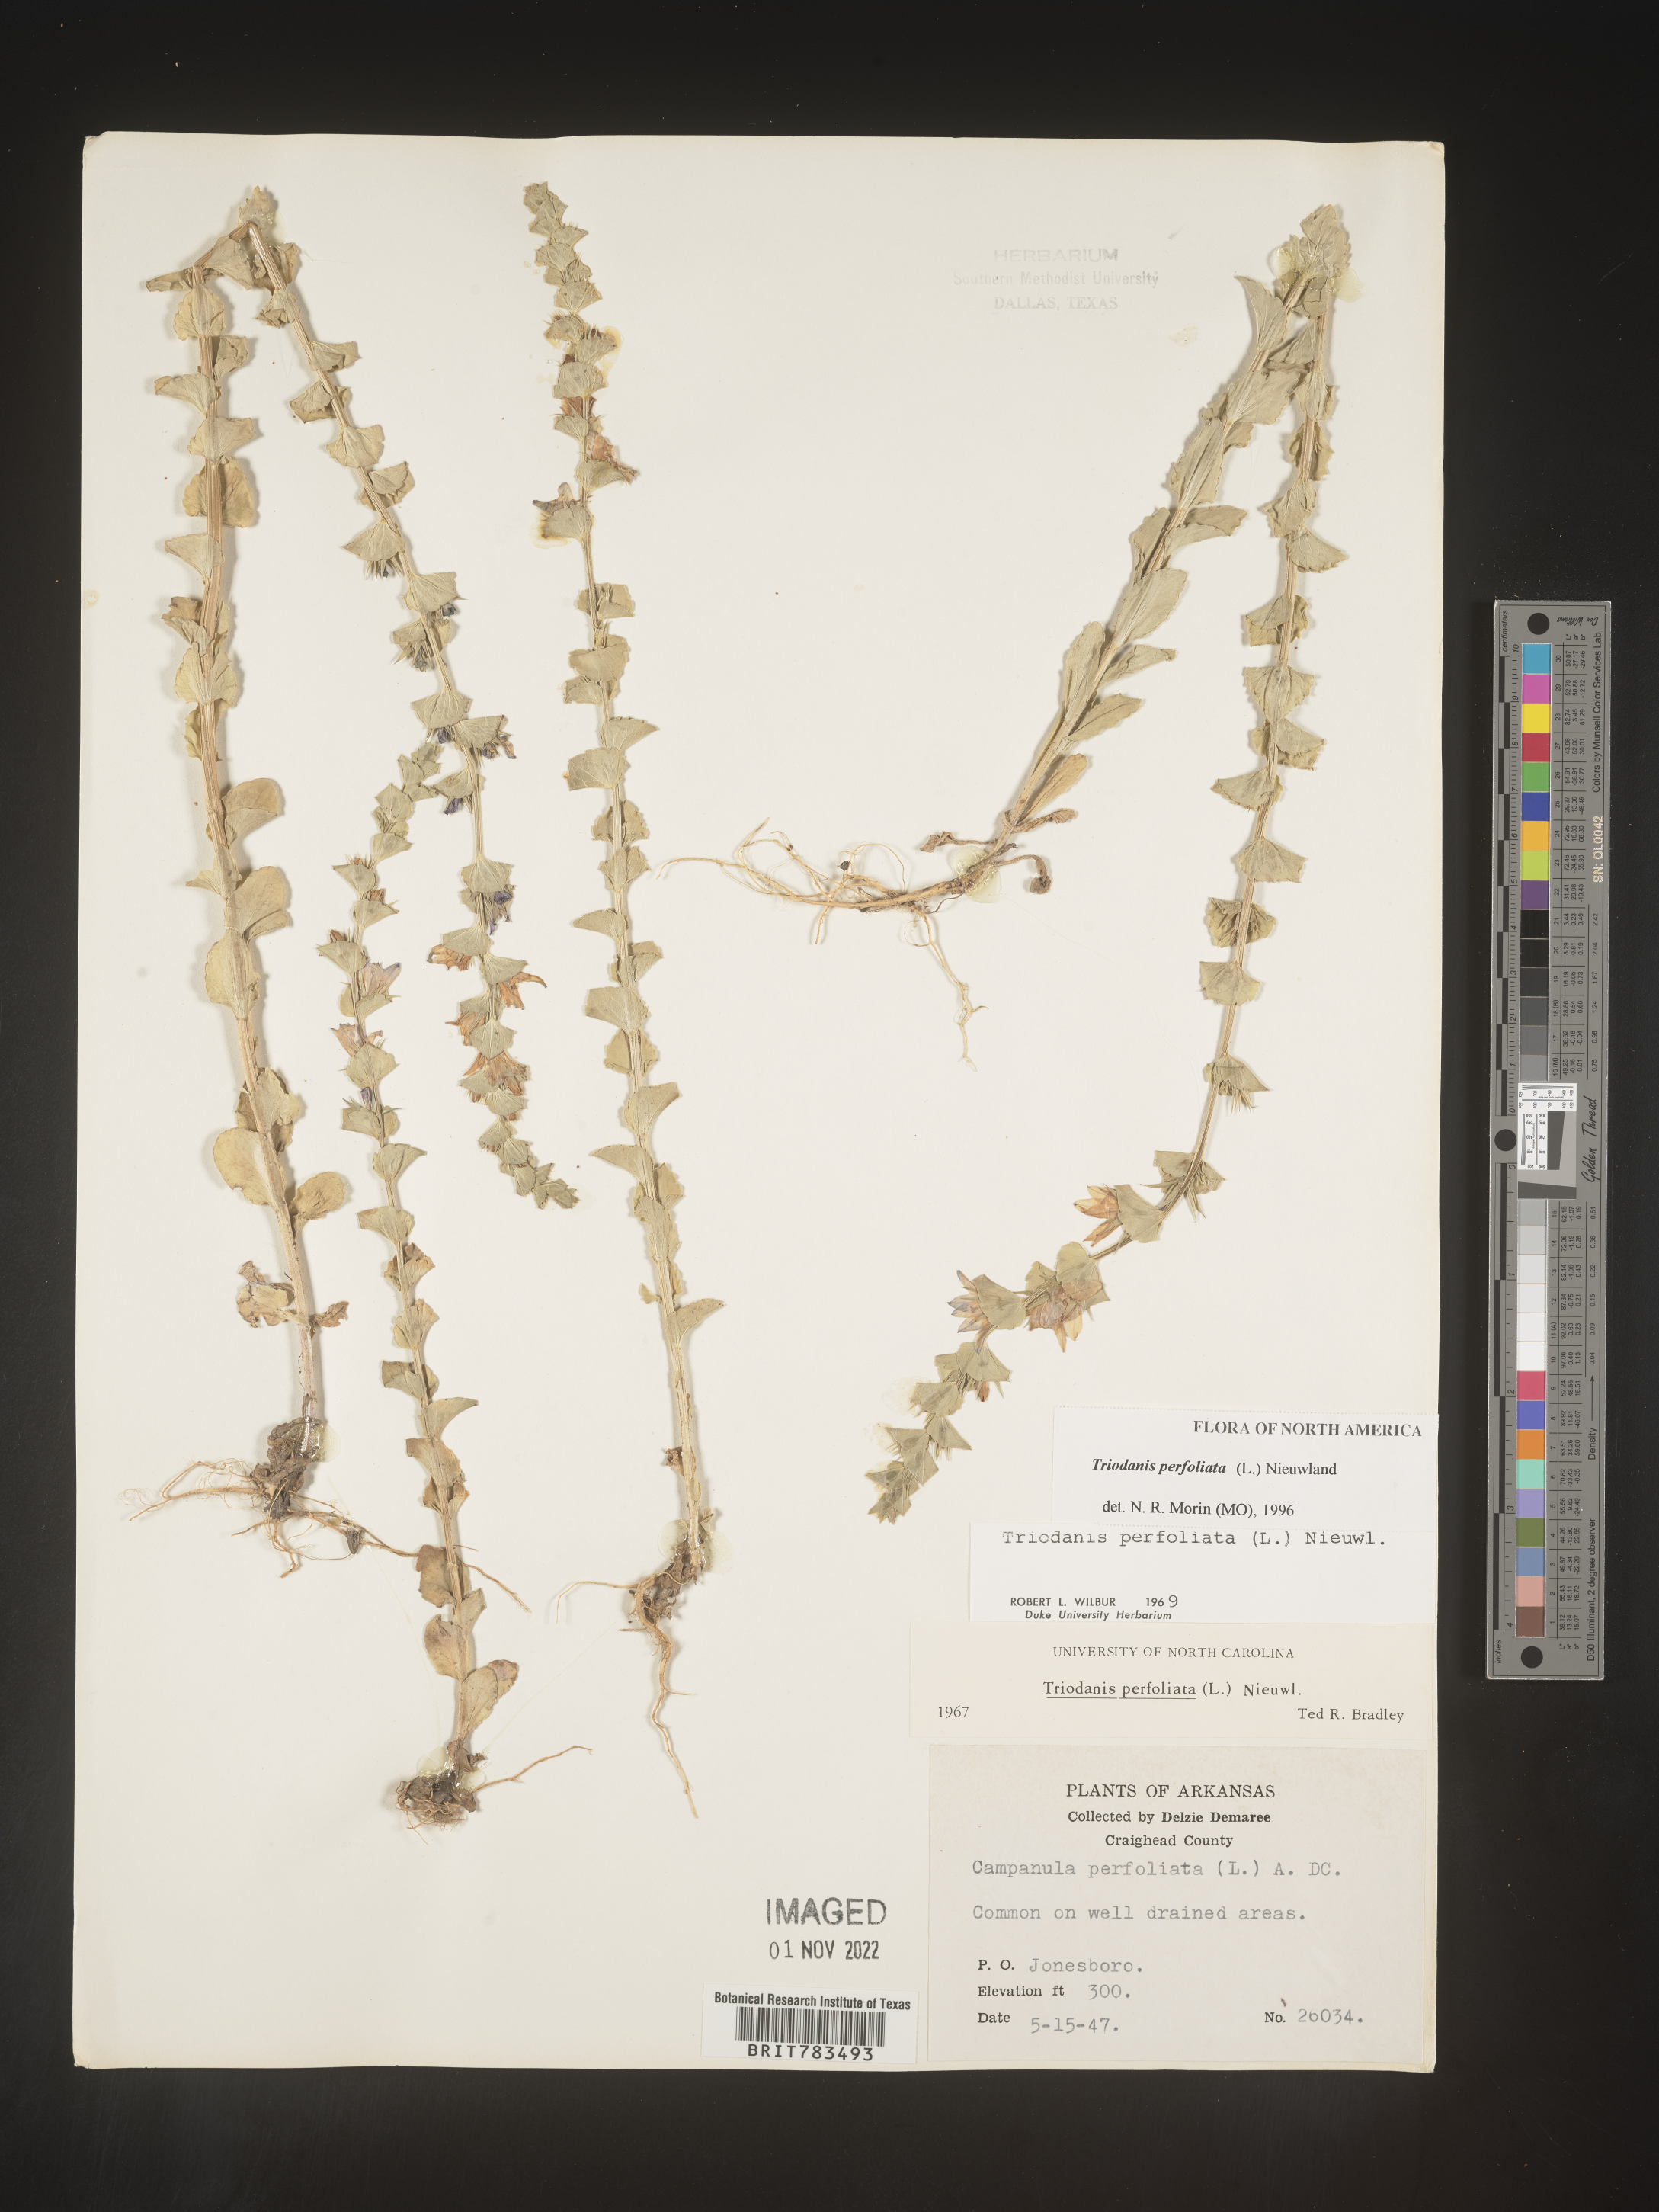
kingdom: Plantae
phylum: Tracheophyta
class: Magnoliopsida
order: Asterales
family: Campanulaceae
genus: Triodanis
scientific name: Triodanis perfoliata
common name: Clasping venus' looking-glass
